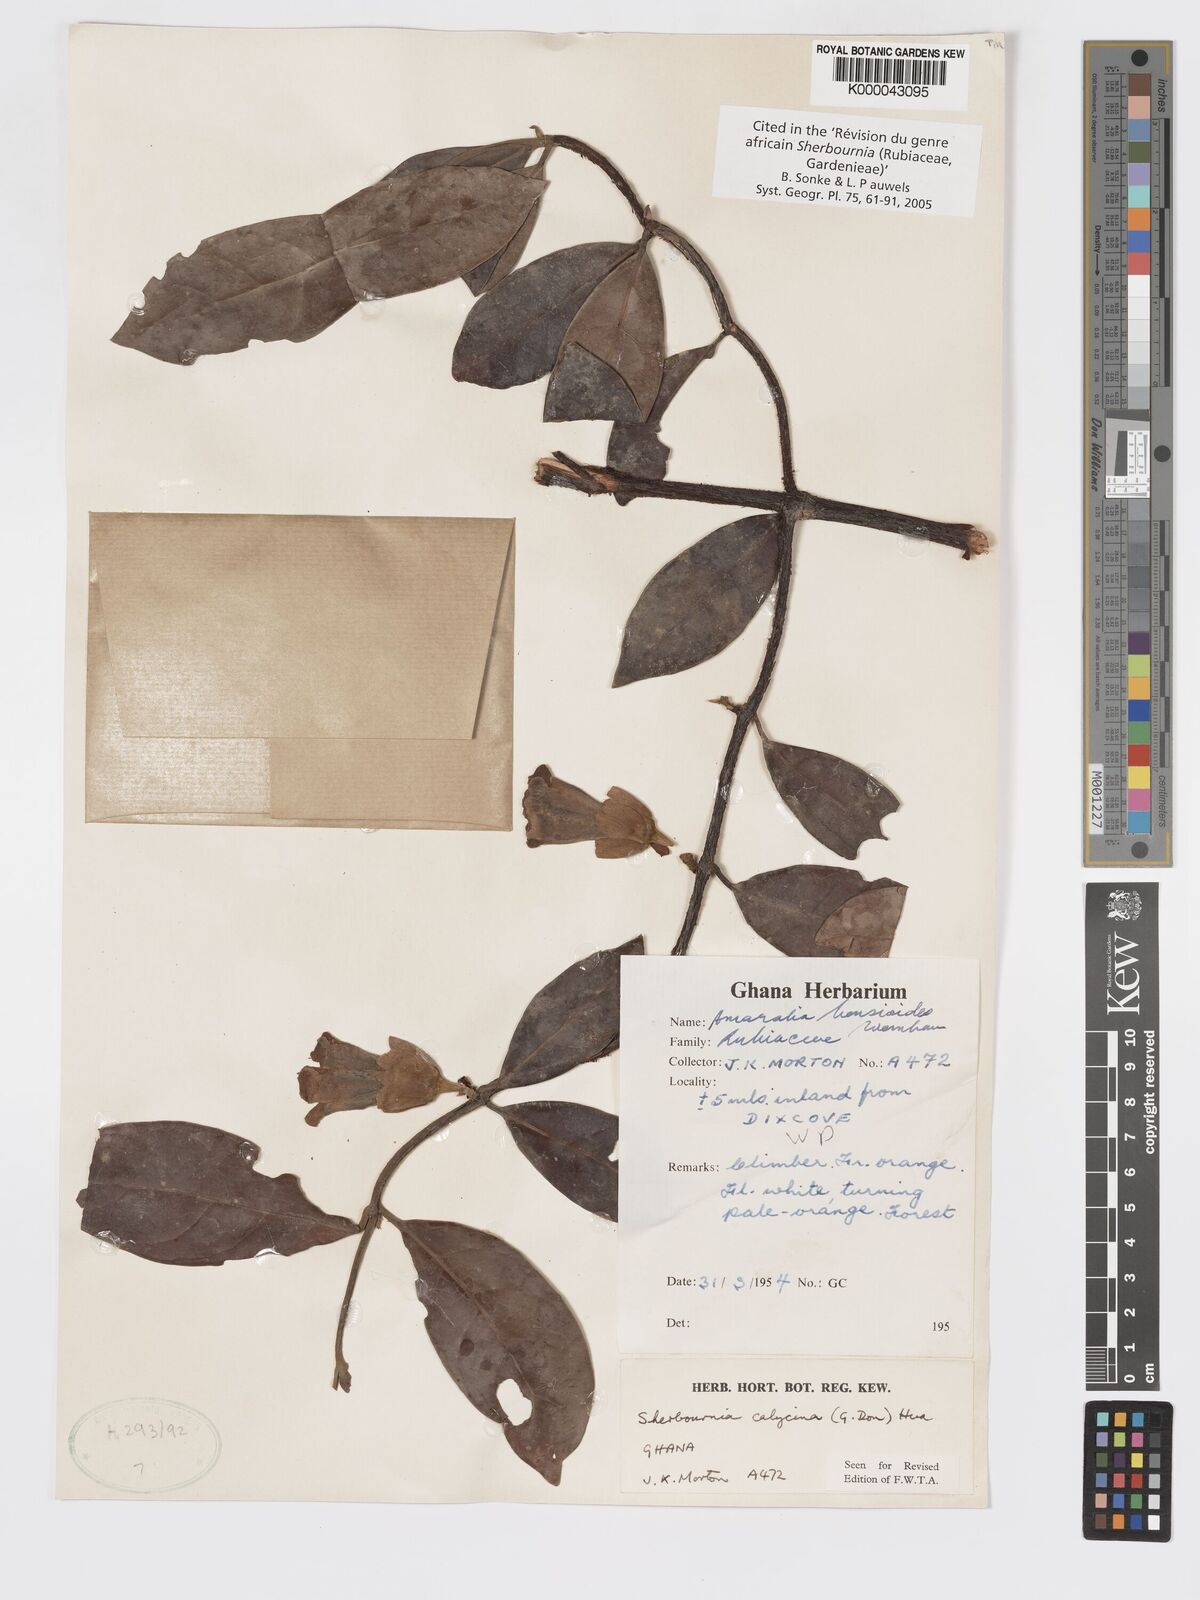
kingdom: Plantae
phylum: Tracheophyta
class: Magnoliopsida
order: Gentianales
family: Rubiaceae
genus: Sherbournia
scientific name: Sherbournia calycina
